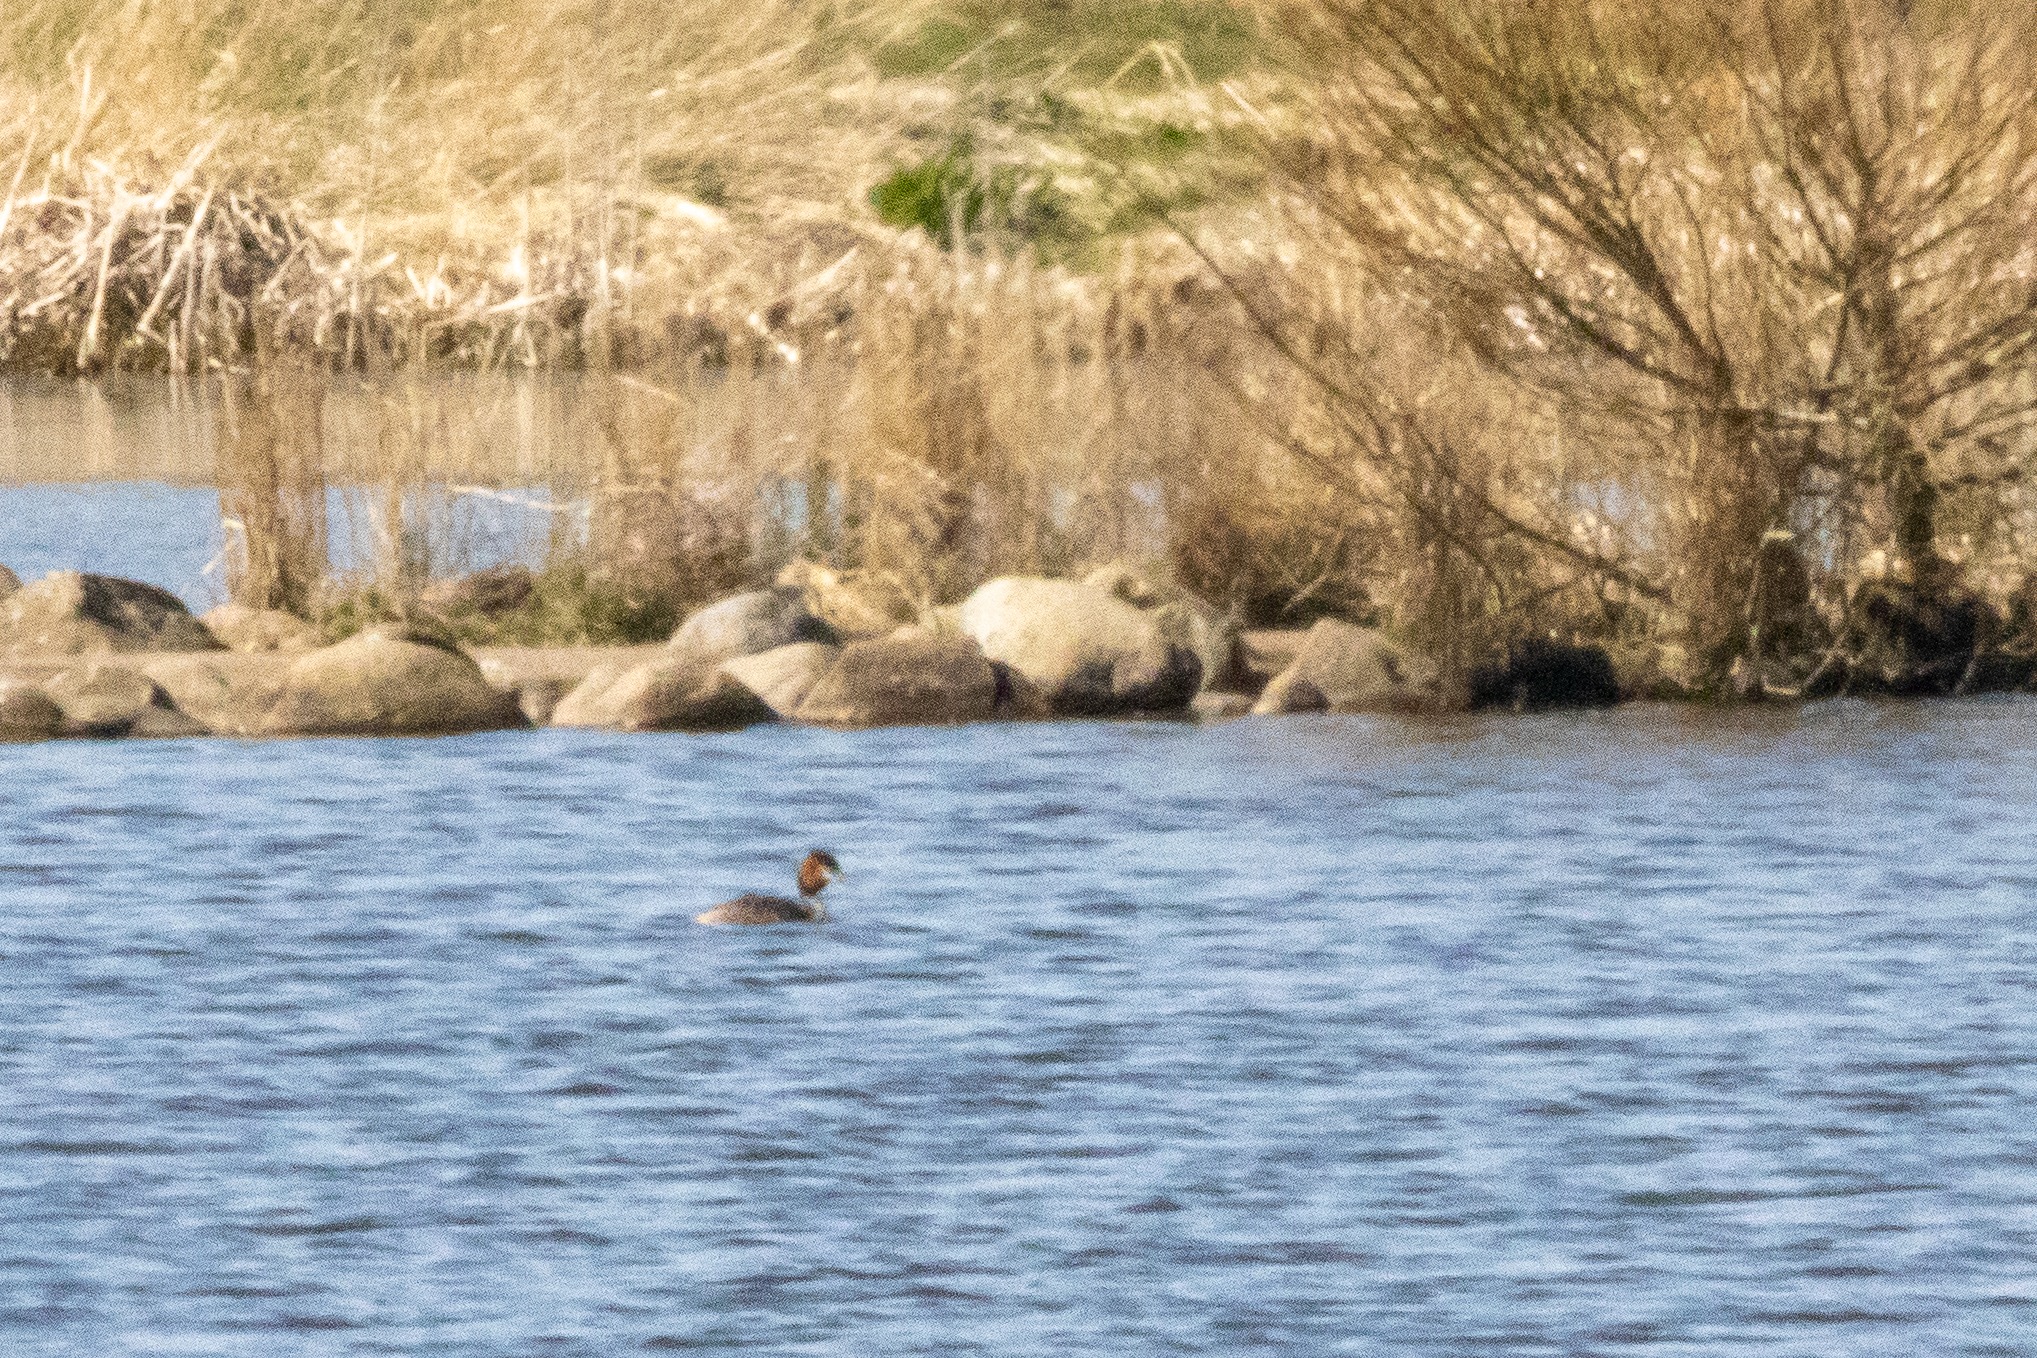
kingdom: Animalia
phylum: Chordata
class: Aves
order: Podicipediformes
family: Podicipedidae
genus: Podiceps
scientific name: Podiceps cristatus
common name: Toppet lappedykker
